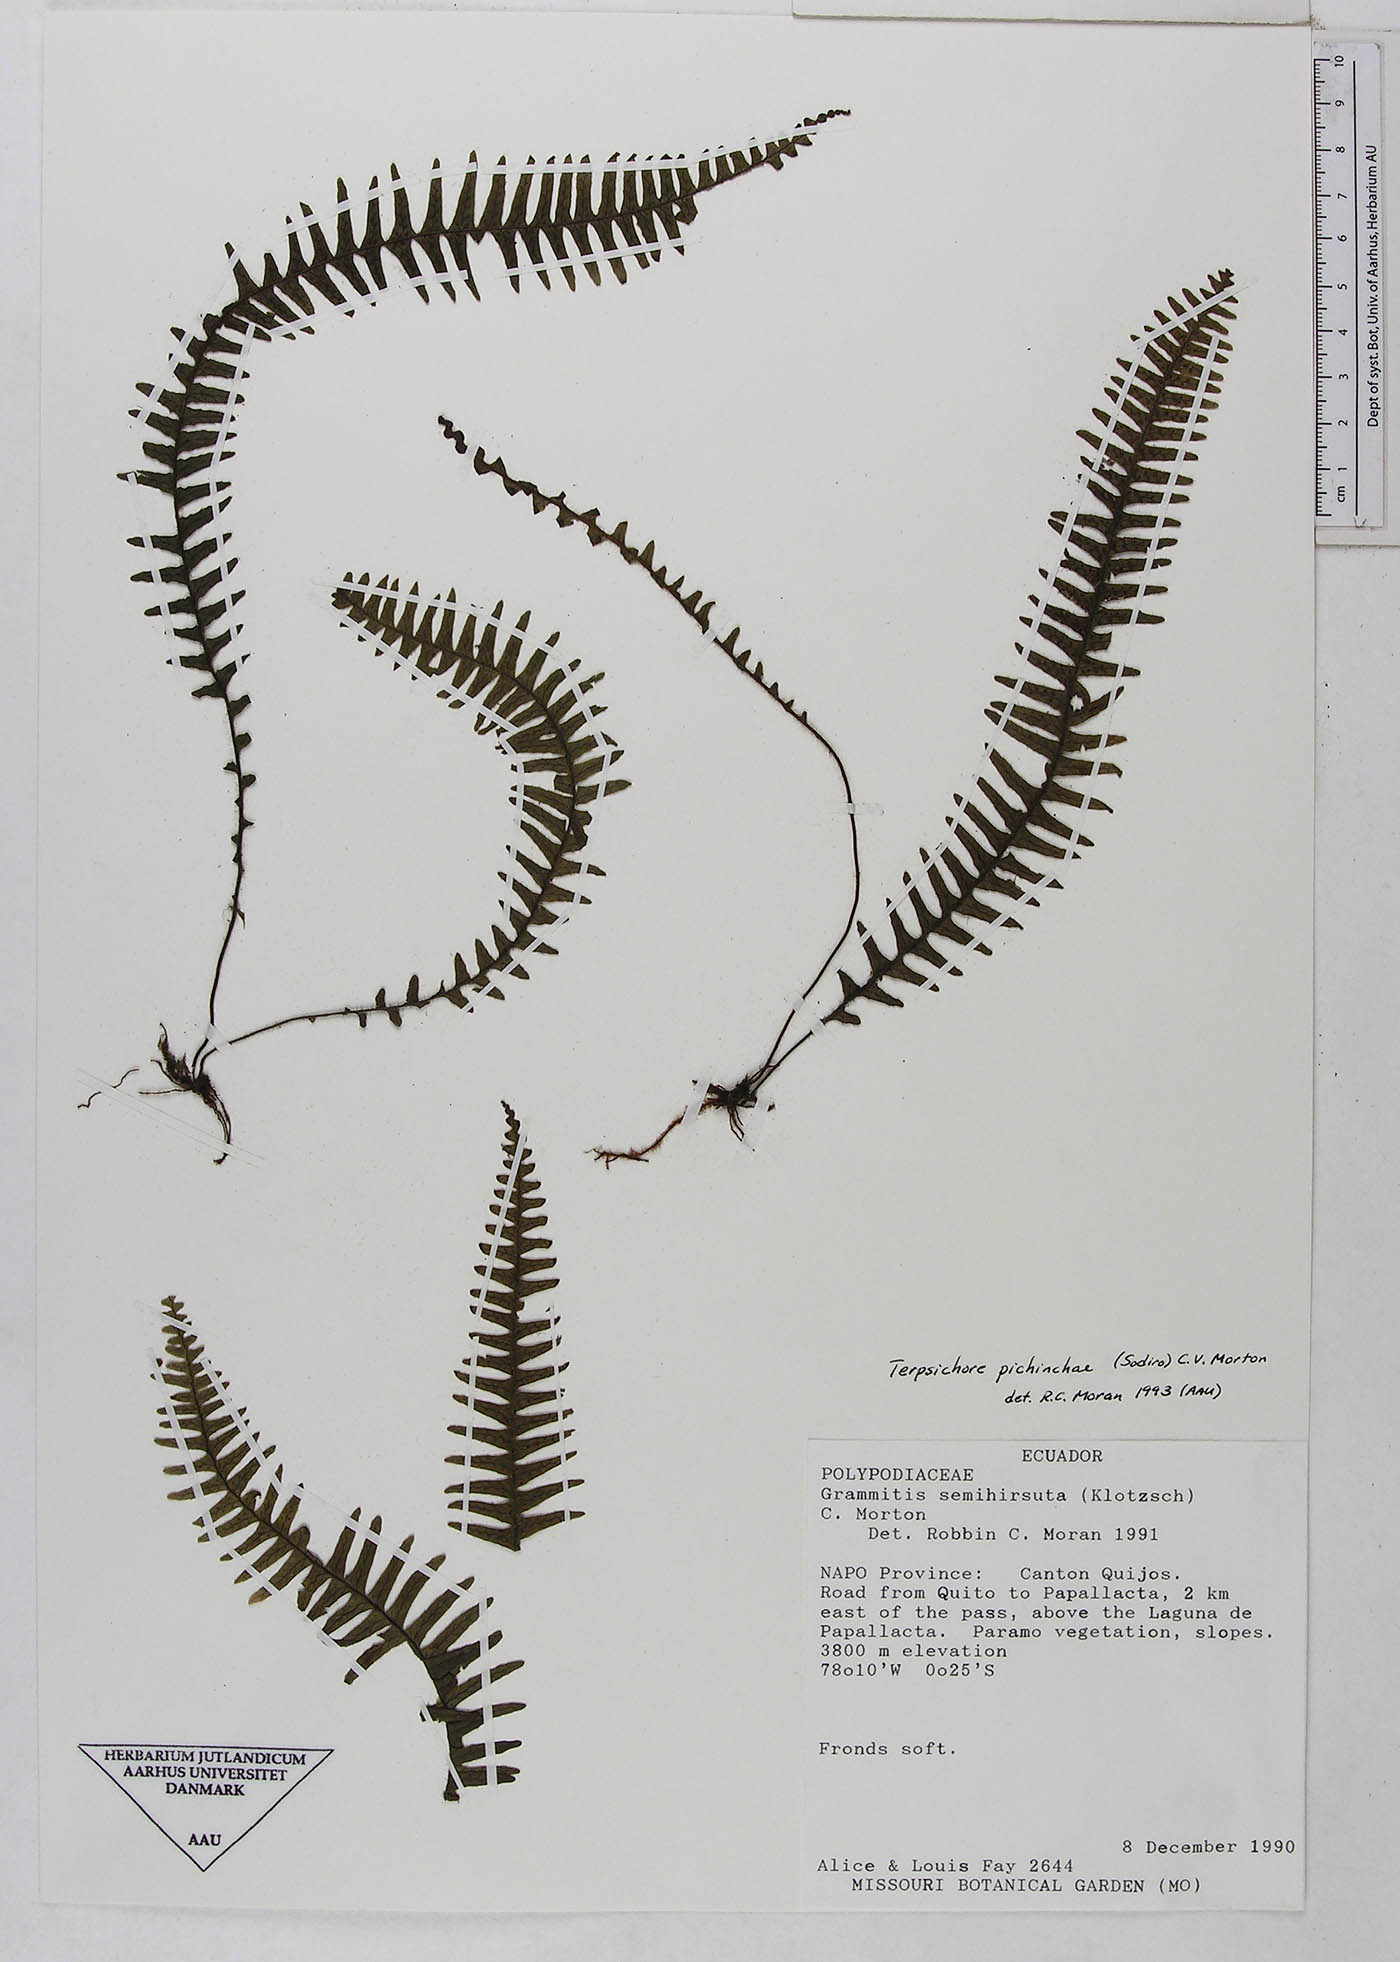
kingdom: Plantae
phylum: Tracheophyta
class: Polypodiopsida
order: Polypodiales
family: Polypodiaceae
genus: Ascogrammitis
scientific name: Ascogrammitis pichinchae
